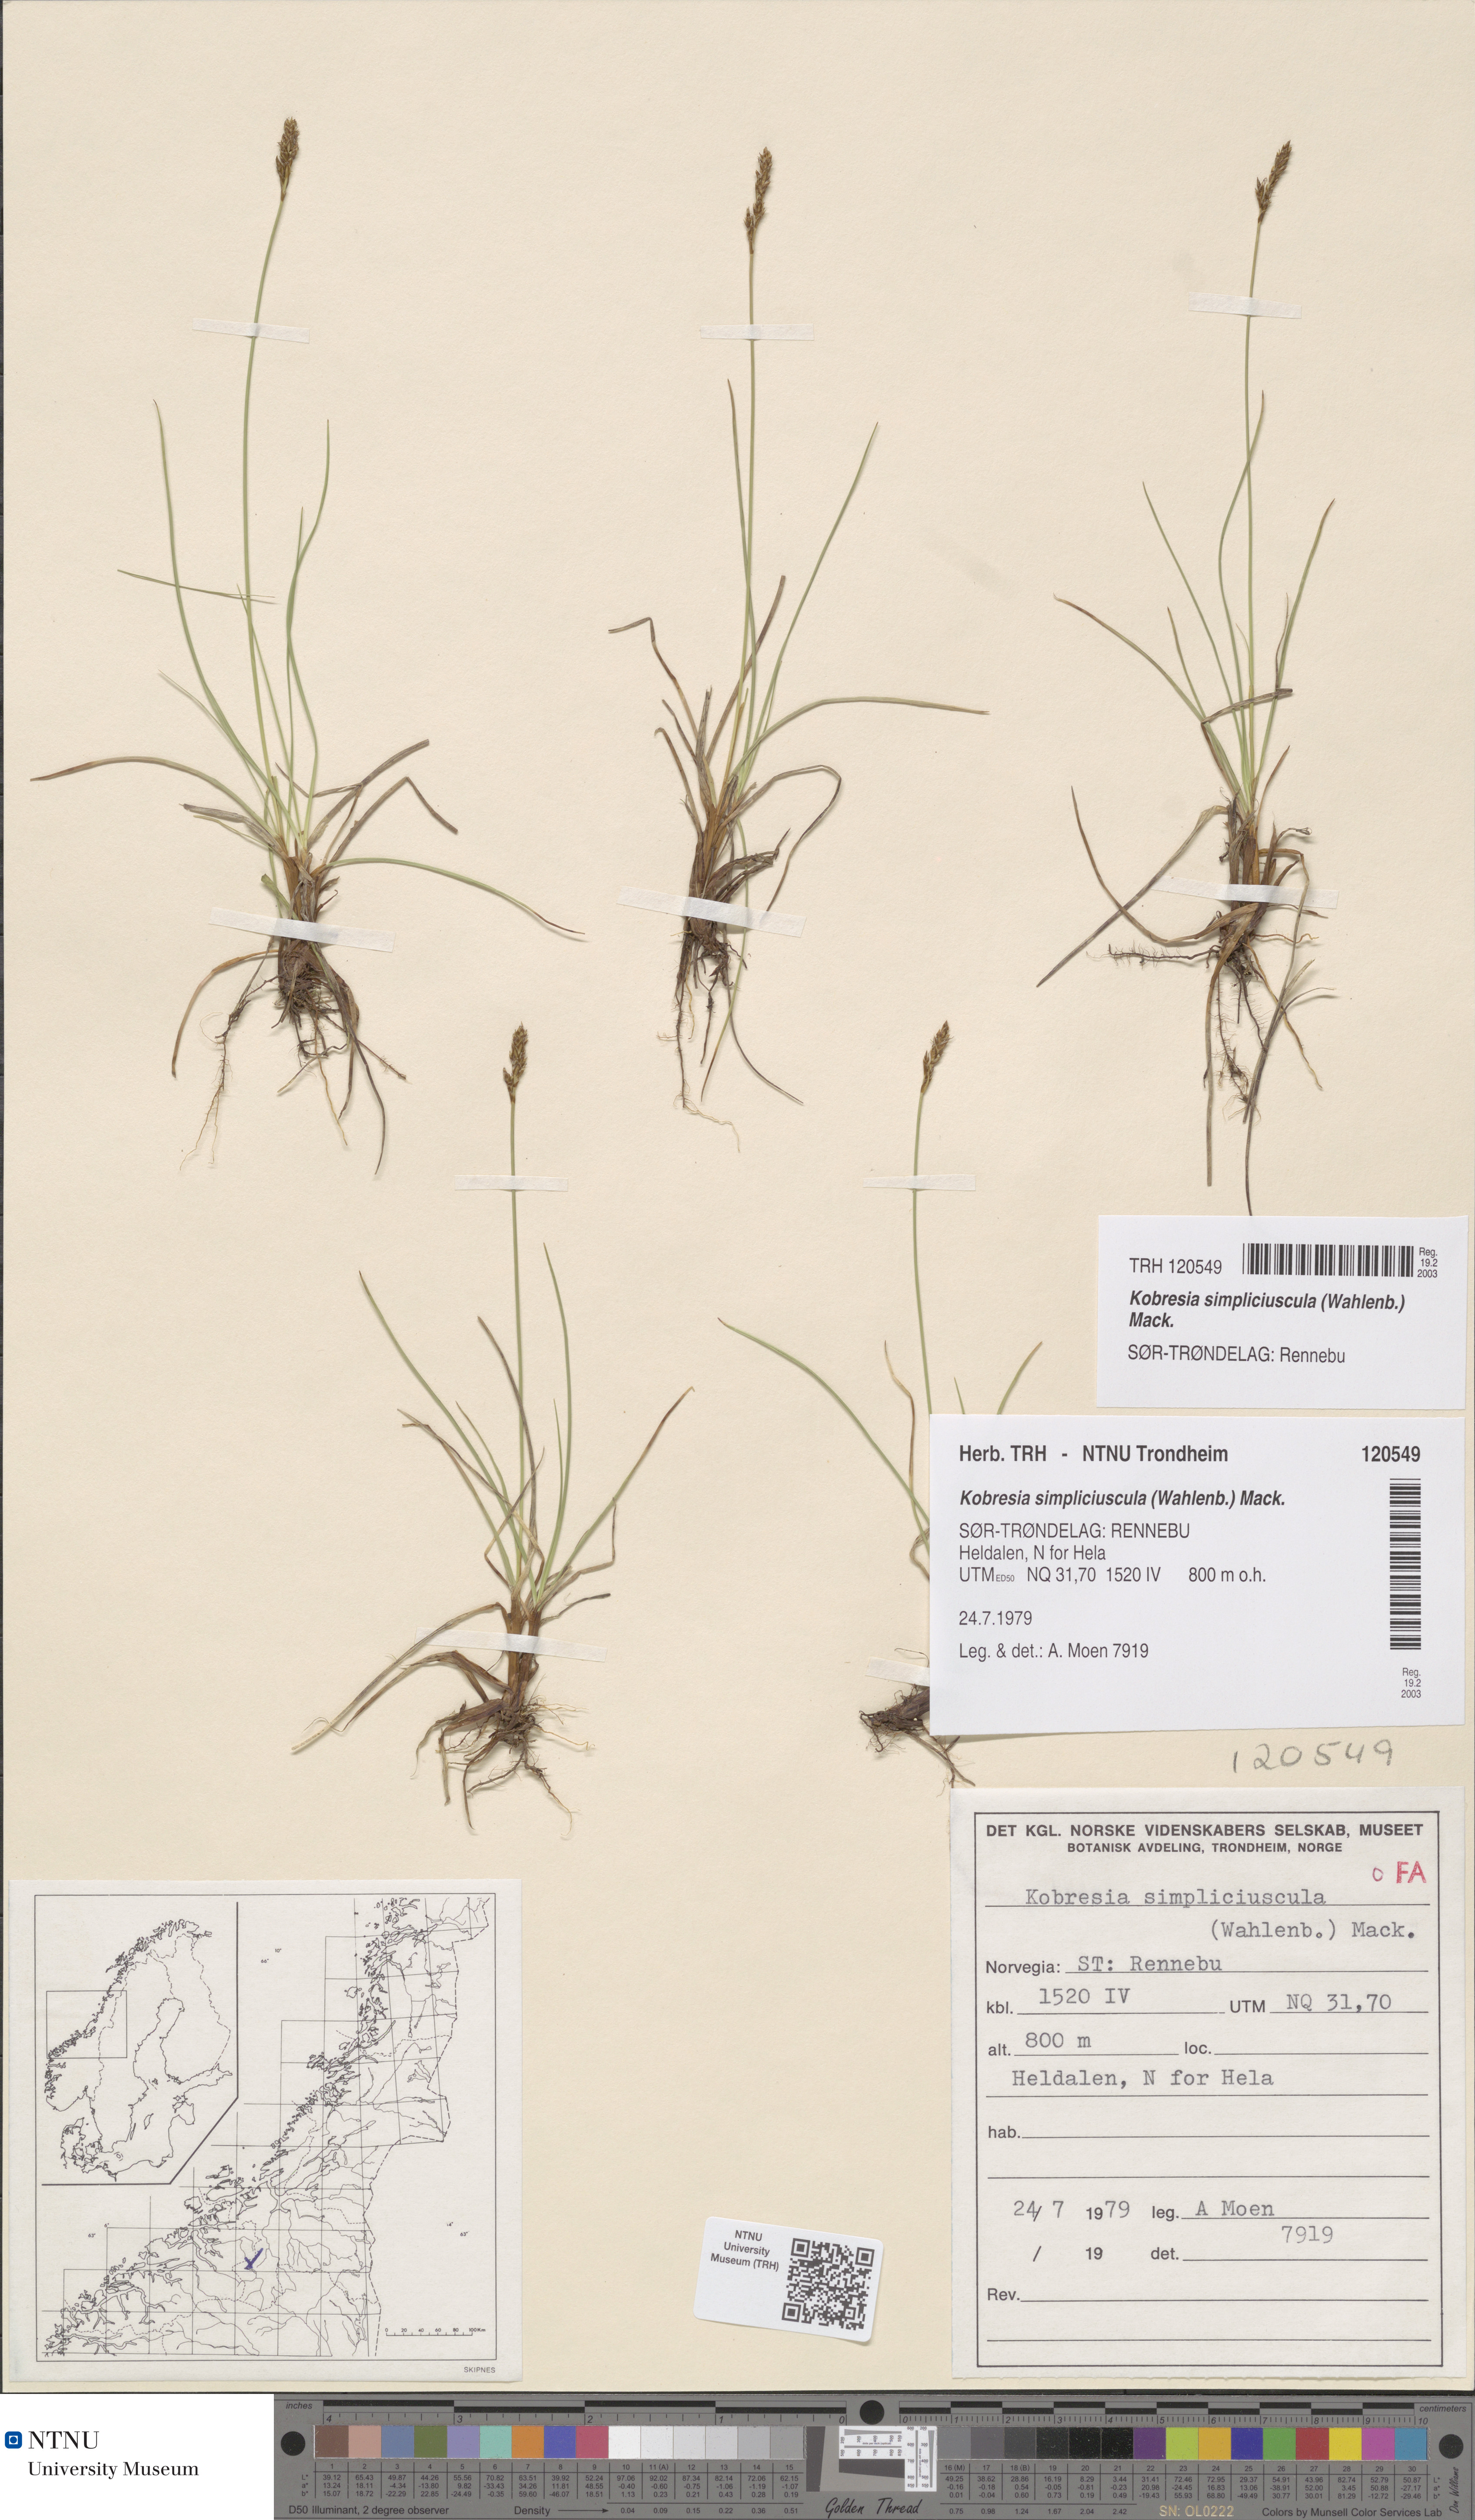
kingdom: Plantae
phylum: Tracheophyta
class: Liliopsida
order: Poales
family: Cyperaceae
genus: Carex
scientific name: Carex simpliciuscula
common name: Simple bog sedge
